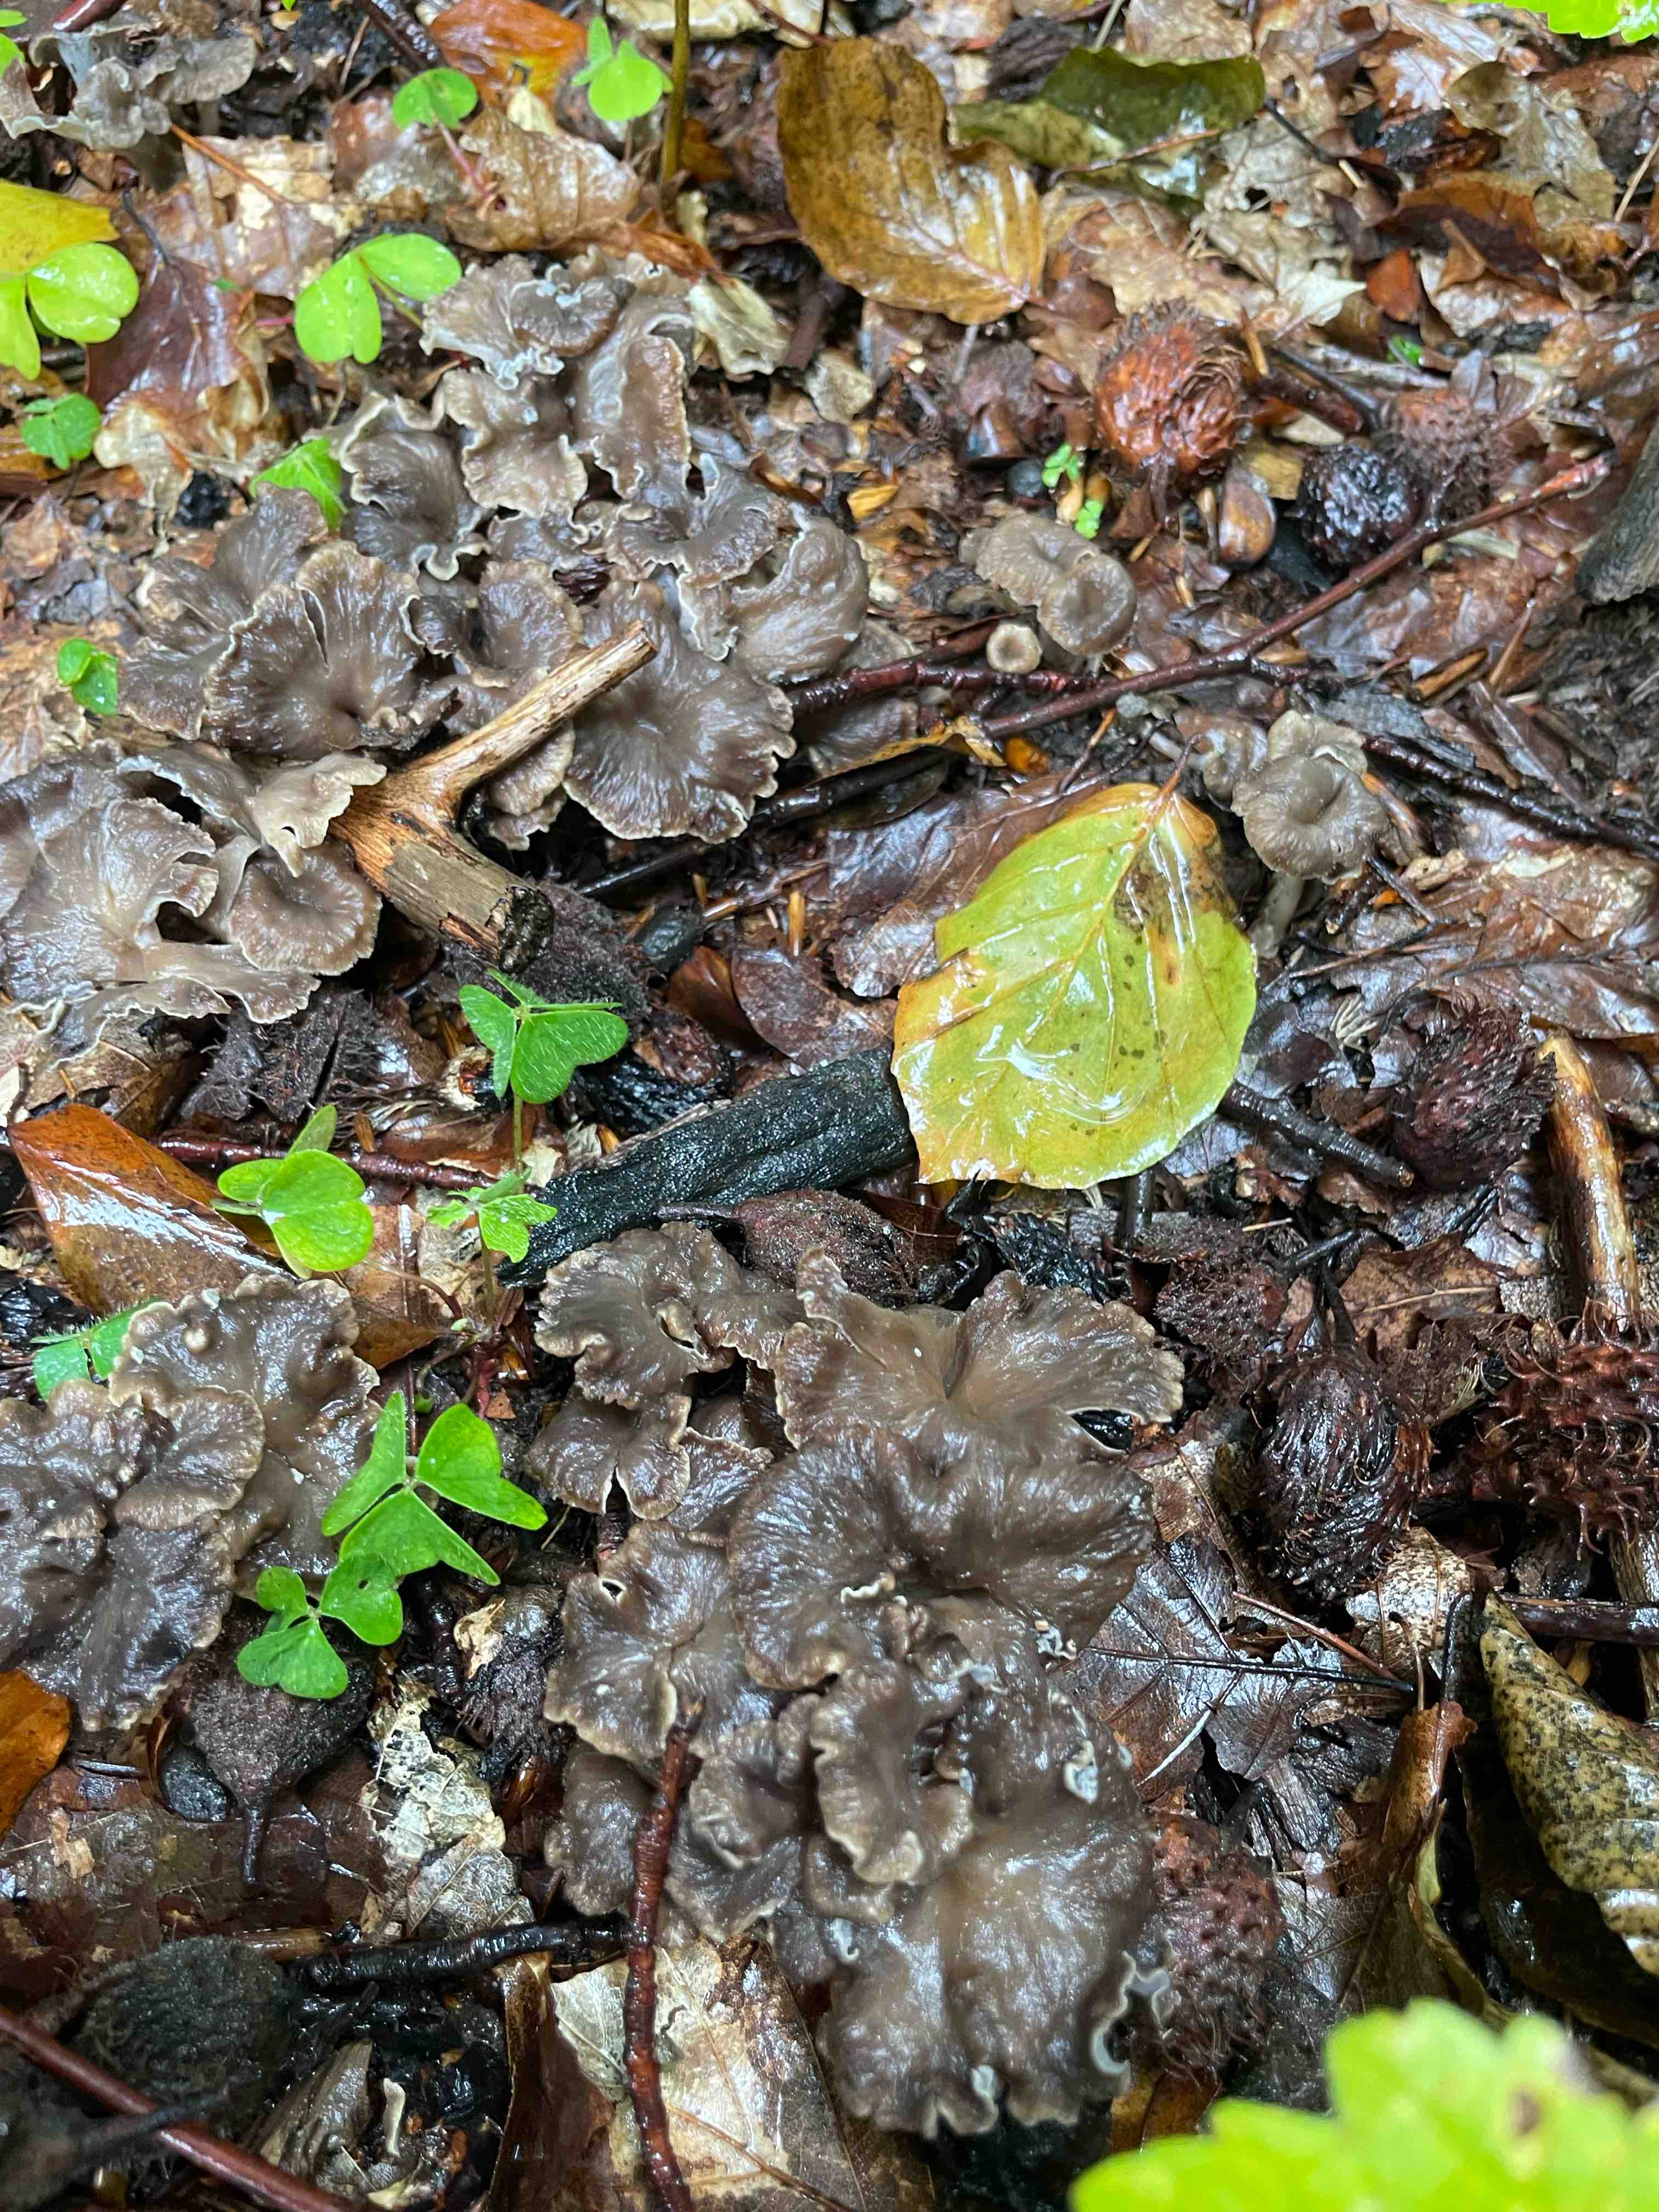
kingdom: Fungi
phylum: Basidiomycota
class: Agaricomycetes
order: Cantharellales
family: Hydnaceae
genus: Craterellus
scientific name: Craterellus
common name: kantarel
